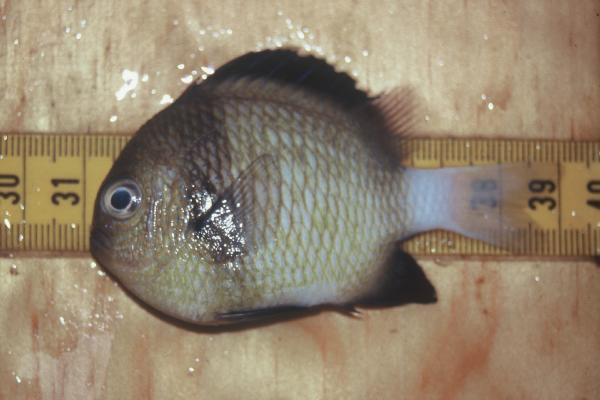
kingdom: Animalia
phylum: Chordata
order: Perciformes
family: Pomacentridae
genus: Dascyllus
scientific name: Dascyllus carneus
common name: Indian dascyllus
